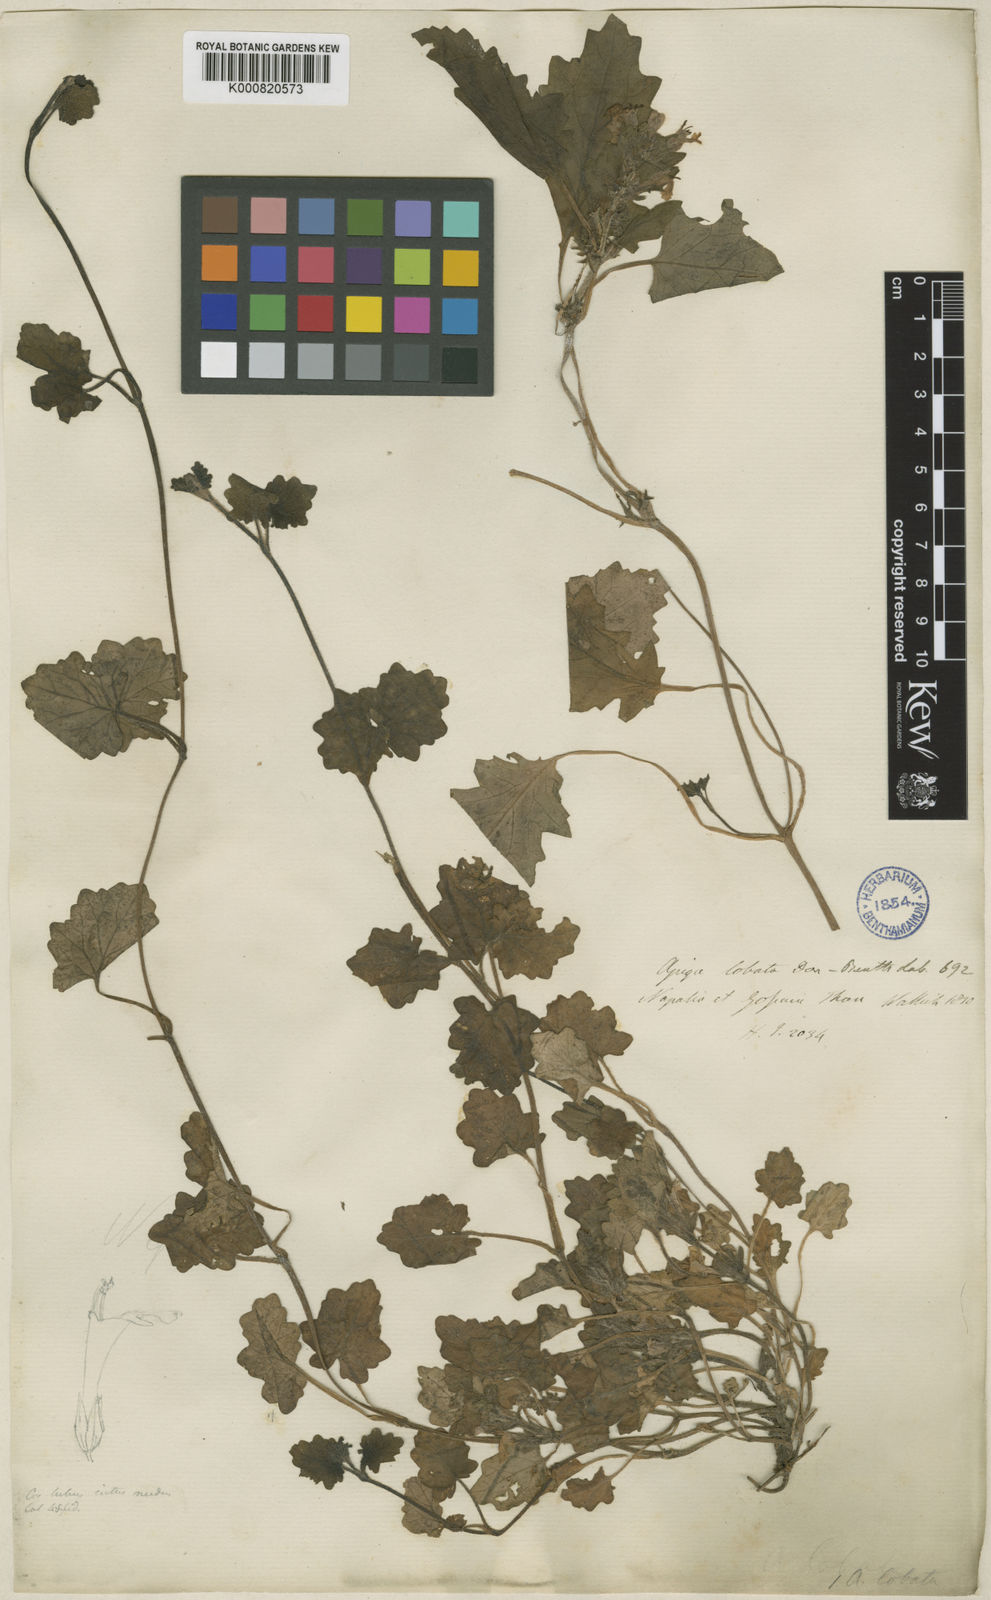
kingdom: Plantae
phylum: Tracheophyta
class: Magnoliopsida
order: Lamiales
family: Lamiaceae
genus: Ajuga
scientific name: Ajuga lobata
